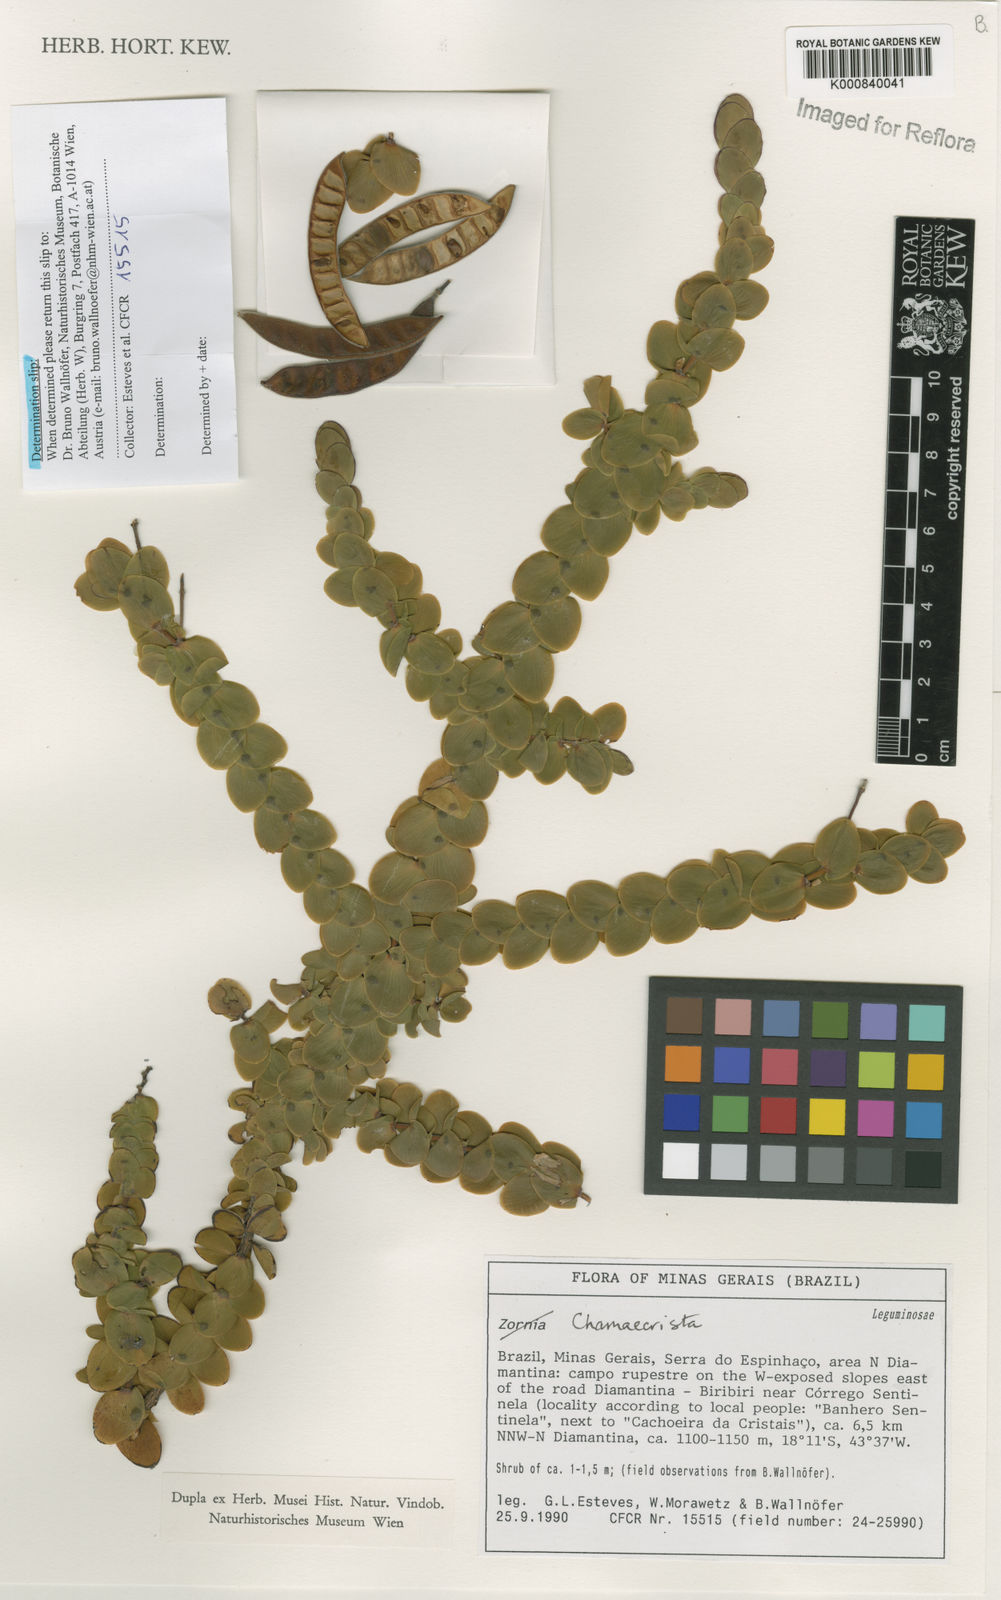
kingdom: Plantae
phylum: Tracheophyta
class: Magnoliopsida
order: Fabales
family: Fabaceae
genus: Chamaecrista
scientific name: Chamaecrista
